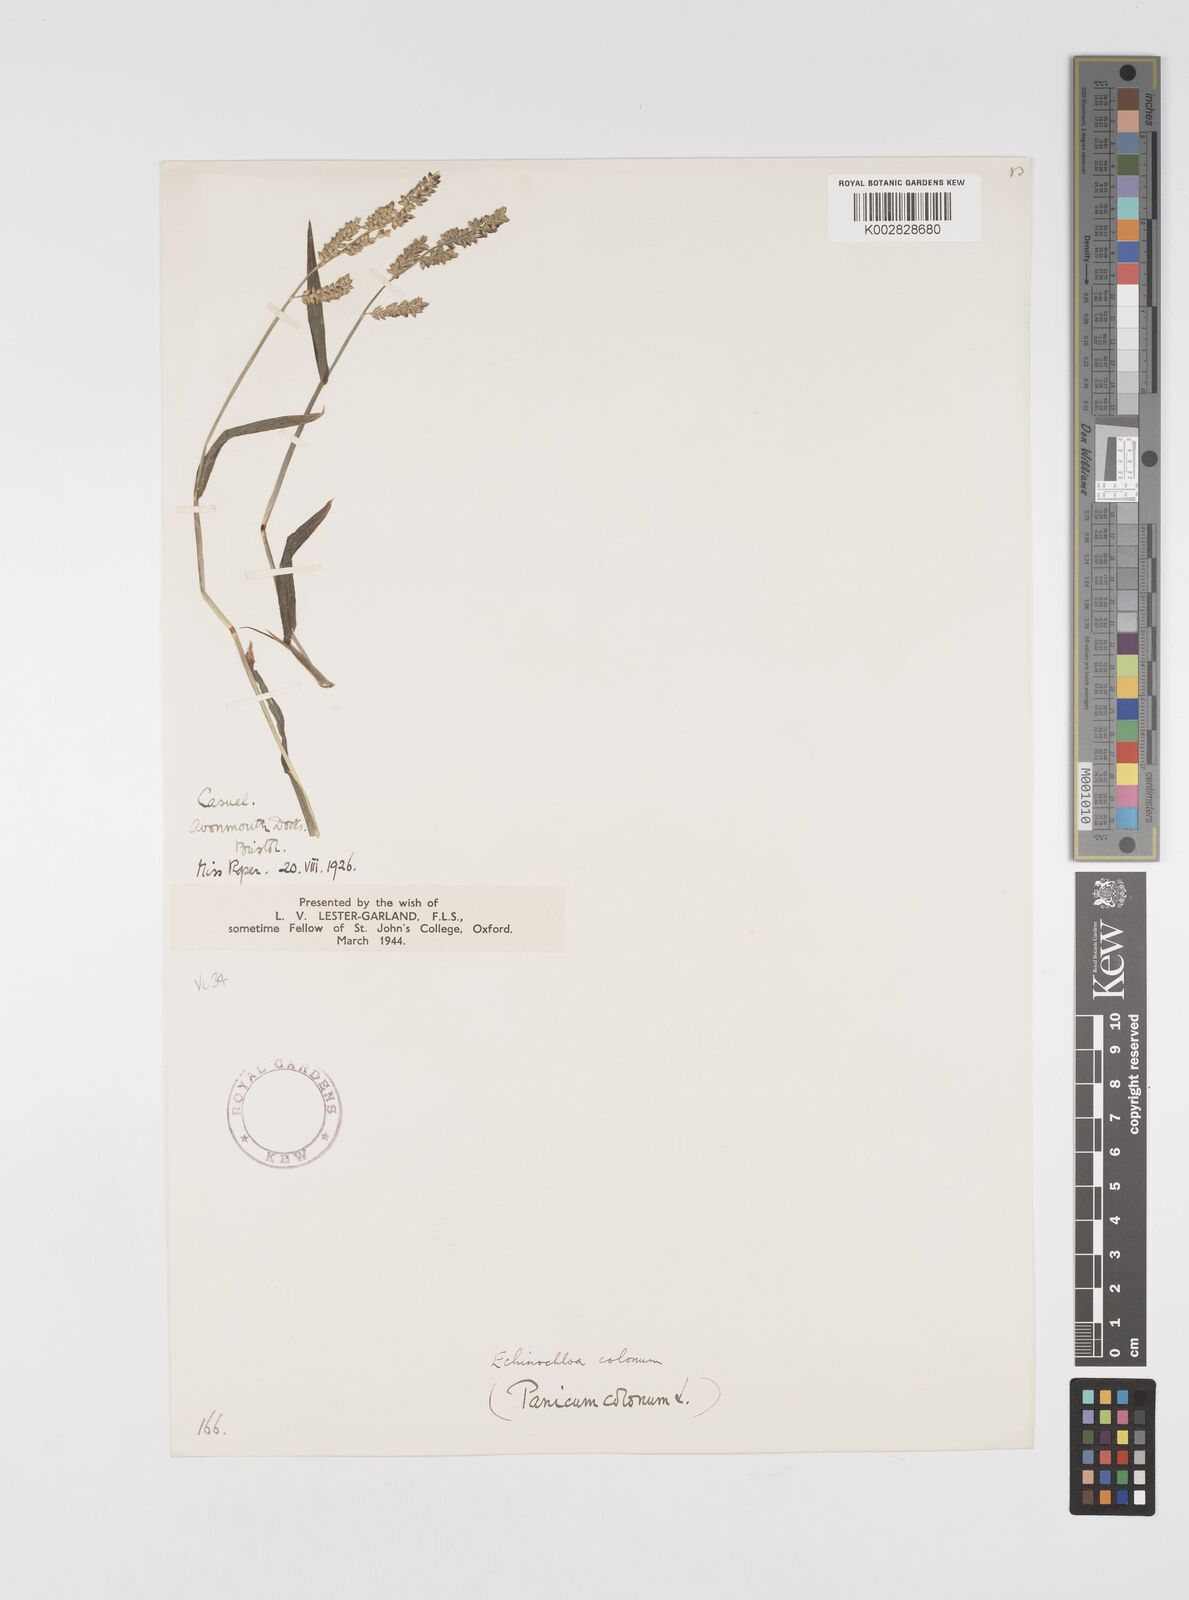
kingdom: Plantae
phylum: Tracheophyta
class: Liliopsida
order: Poales
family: Poaceae
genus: Echinochloa
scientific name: Echinochloa colonum
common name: Jungle rice
